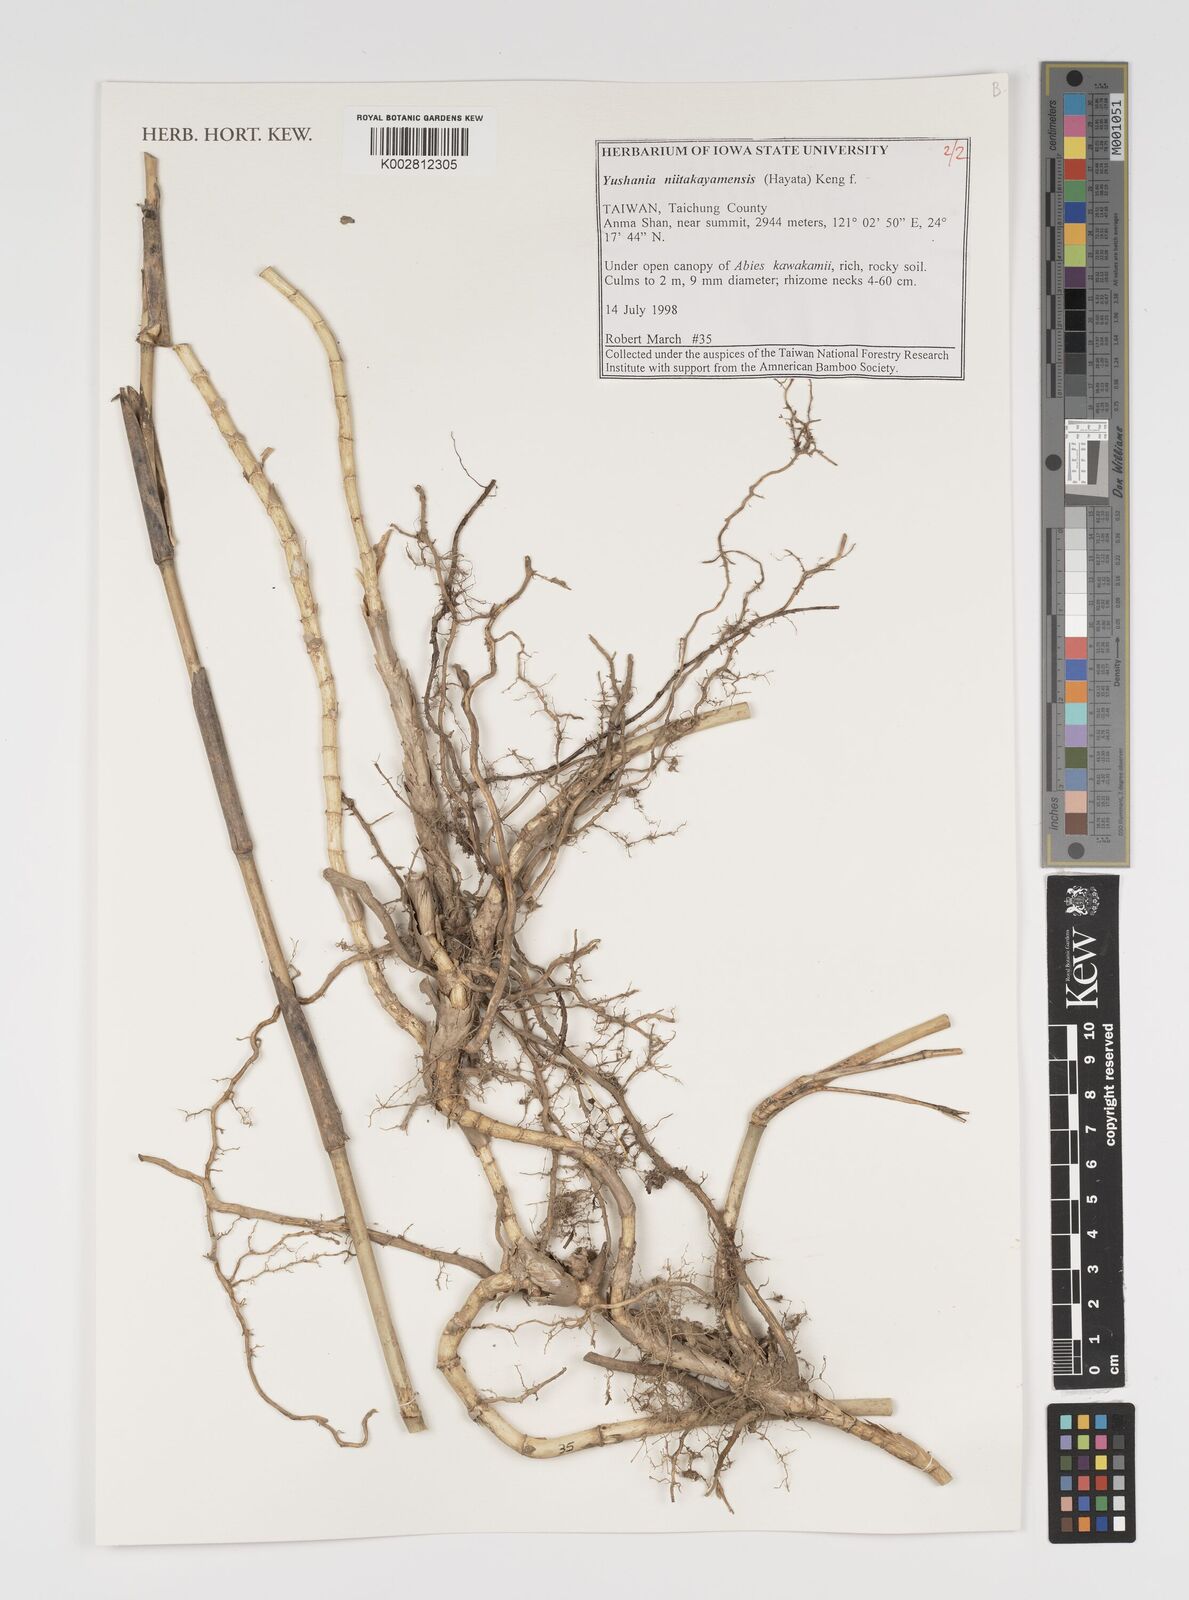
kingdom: Plantae
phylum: Tracheophyta
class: Liliopsida
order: Poales
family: Poaceae
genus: Yushania
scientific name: Yushania niitakayamensis
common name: Yushan cane
